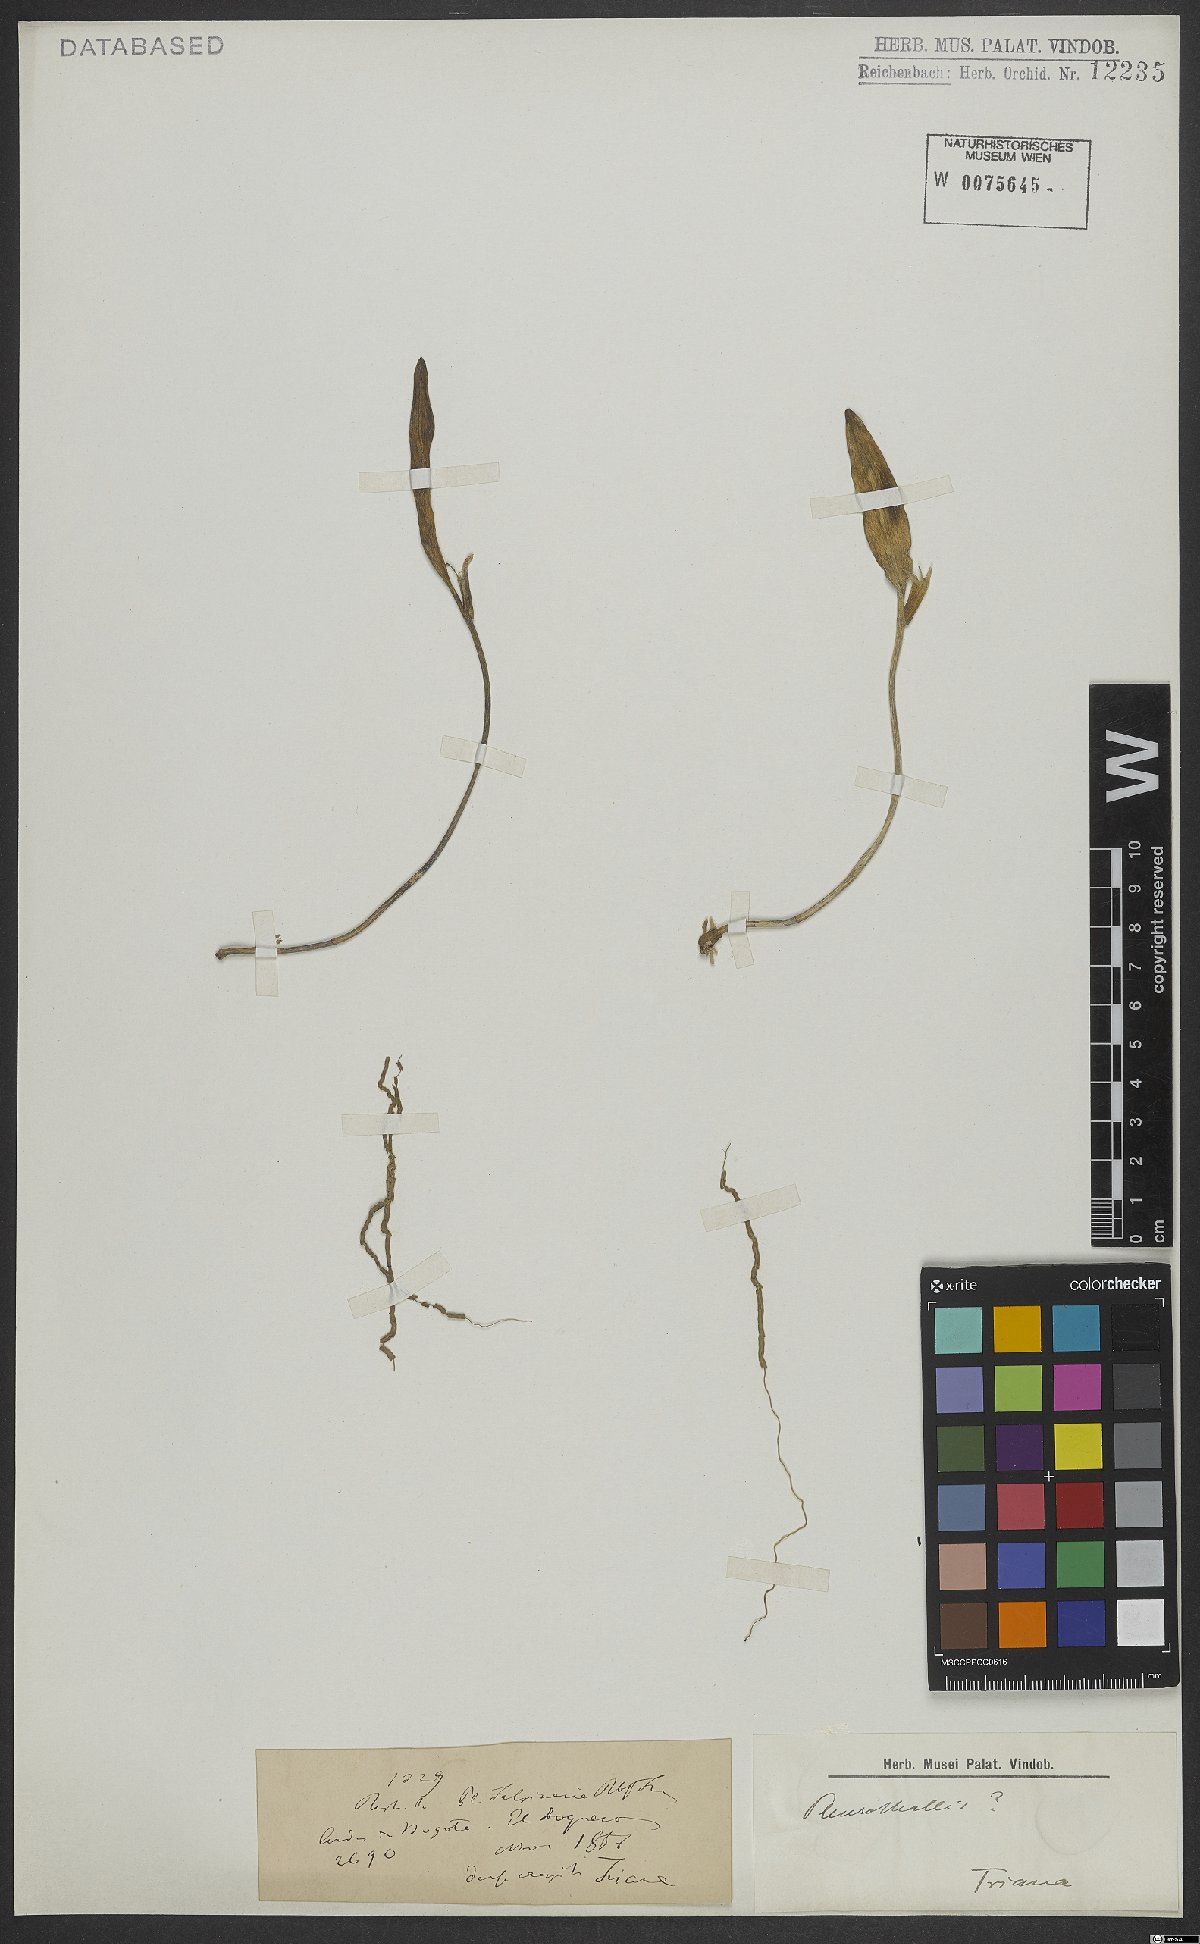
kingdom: Plantae
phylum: Tracheophyta
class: Liliopsida
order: Asparagales
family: Orchidaceae
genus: Pleurothallis
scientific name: Pleurothallis talpinaria
